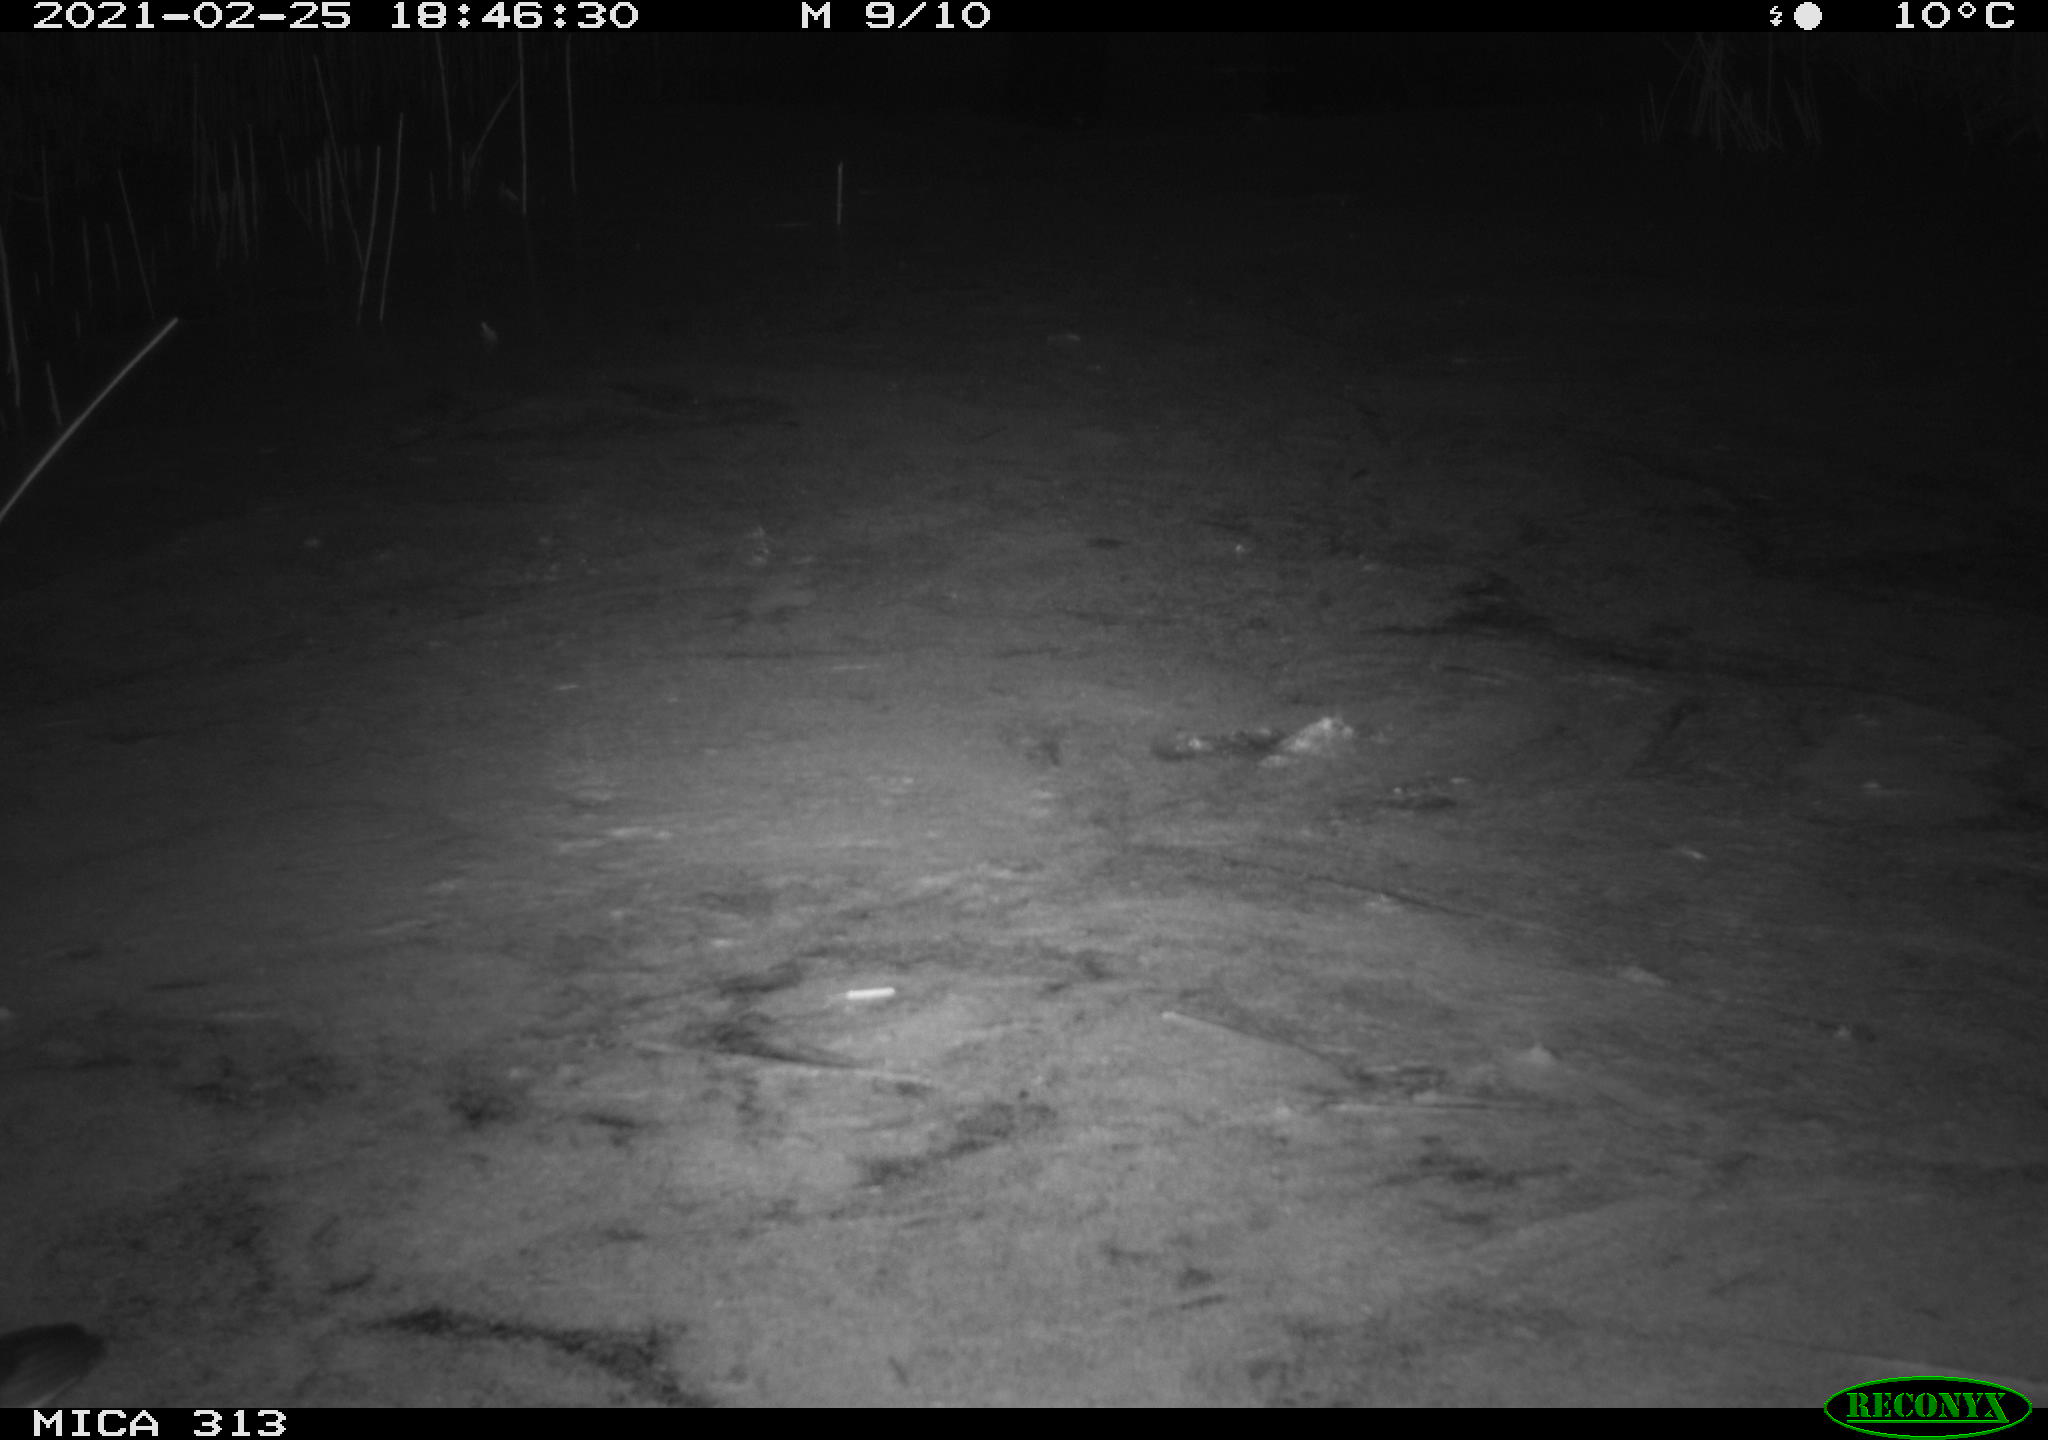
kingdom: Animalia
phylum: Chordata
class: Aves
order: Gruiformes
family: Rallidae
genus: Gallinula
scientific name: Gallinula chloropus
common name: Common moorhen
